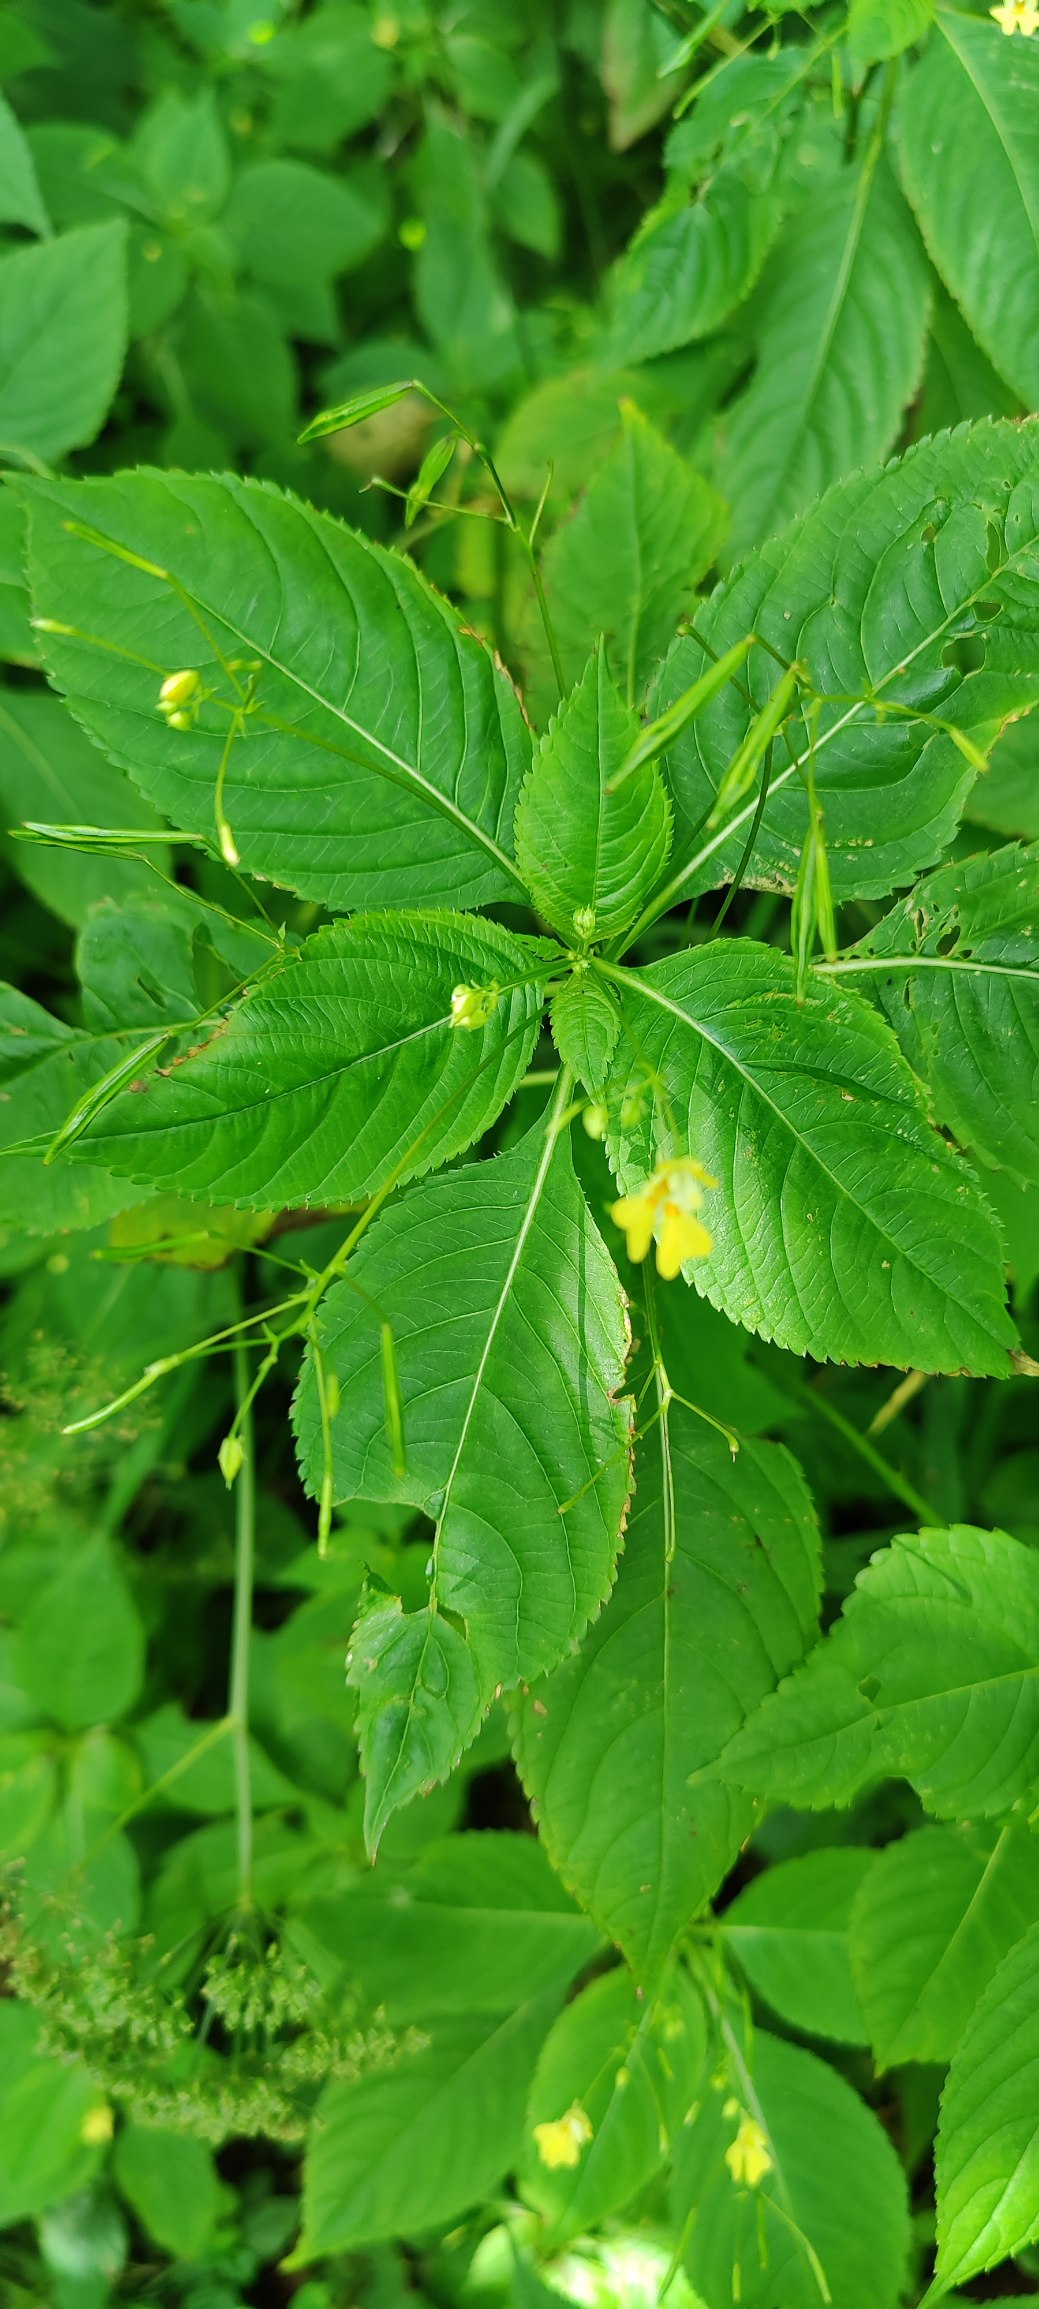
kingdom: Plantae
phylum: Tracheophyta
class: Magnoliopsida
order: Ericales
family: Balsaminaceae
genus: Impatiens
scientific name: Impatiens parviflora
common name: Småblomstret balsamin
